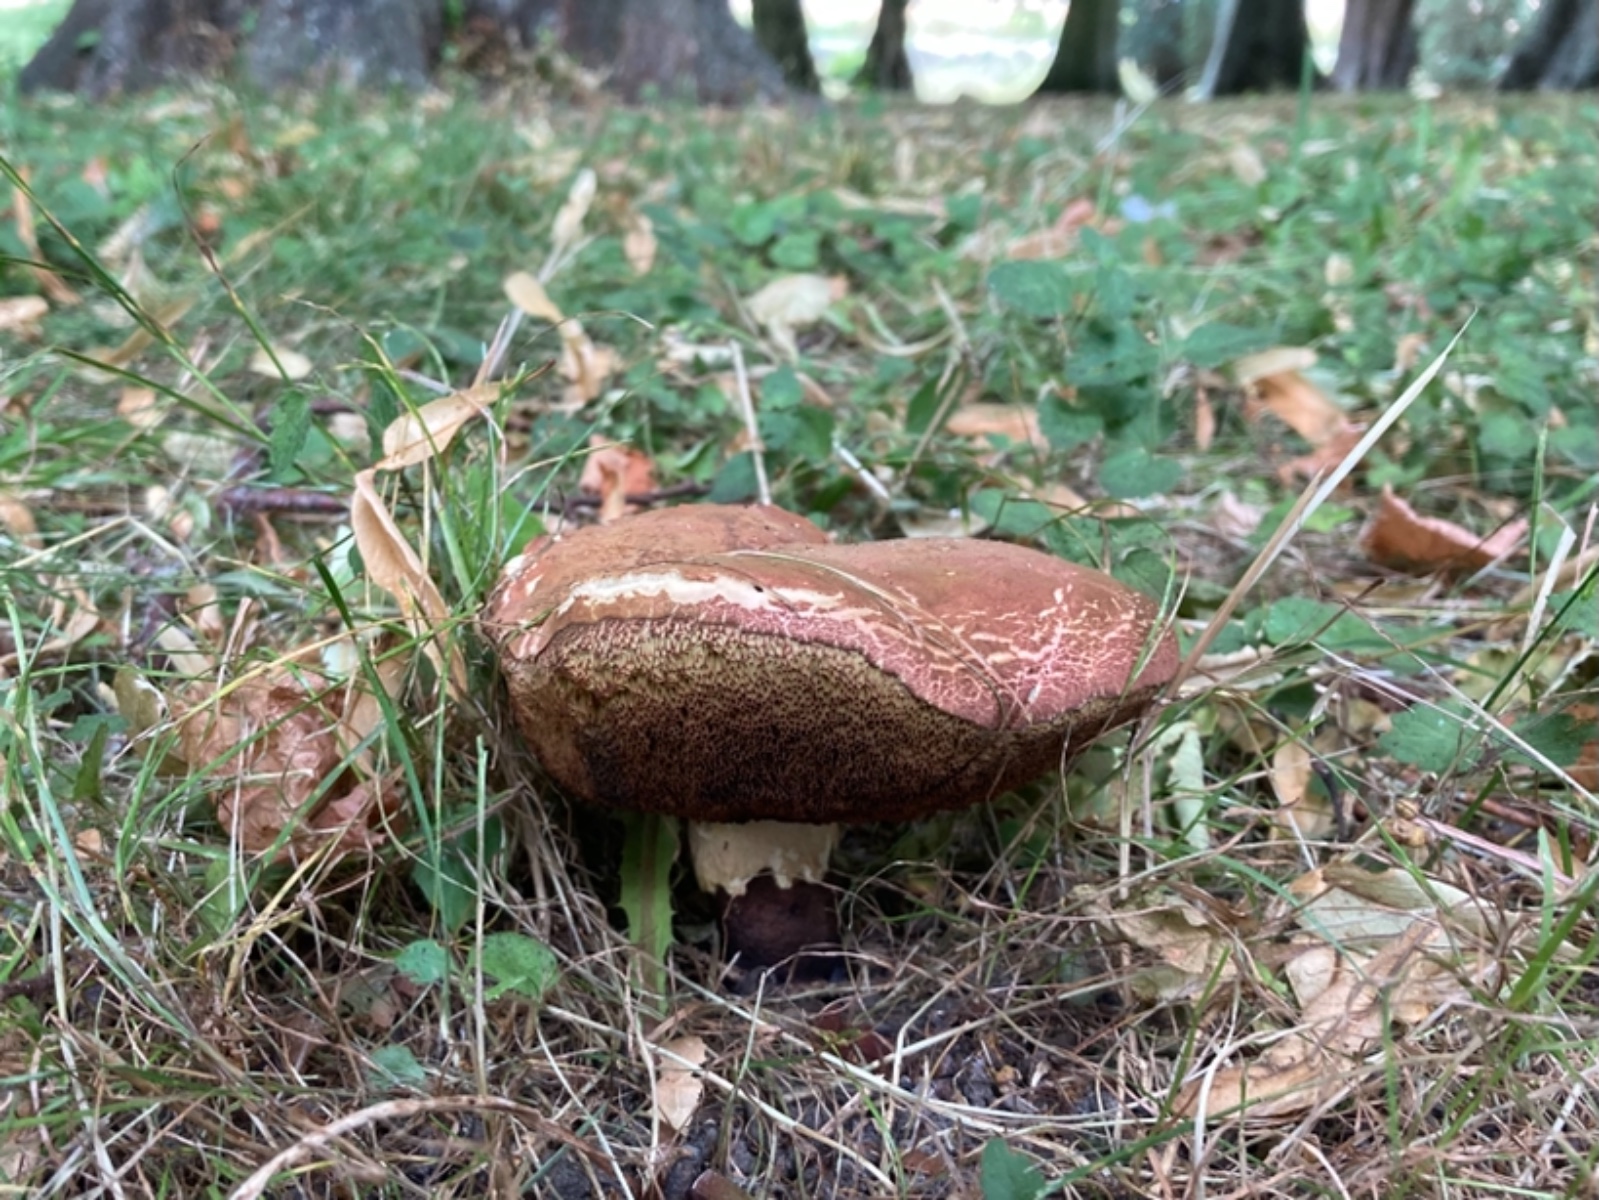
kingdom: Fungi
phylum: Basidiomycota
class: Agaricomycetes
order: Boletales
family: Boletaceae
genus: Suillellus
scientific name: Suillellus queletii
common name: glatstokket indigorørhat
